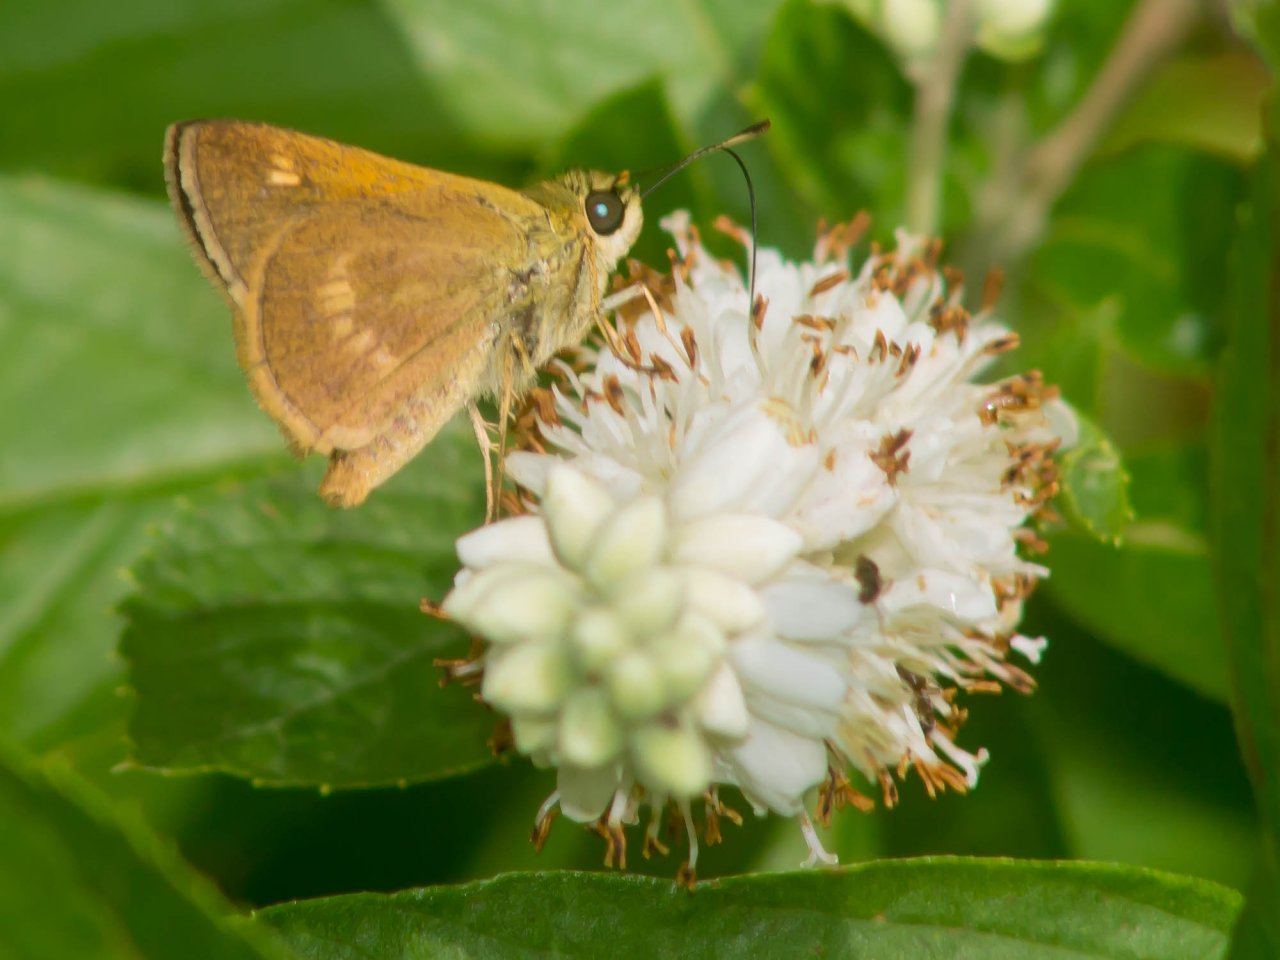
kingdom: Animalia
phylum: Arthropoda
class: Insecta
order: Lepidoptera
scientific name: Lepidoptera
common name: Butterflies
